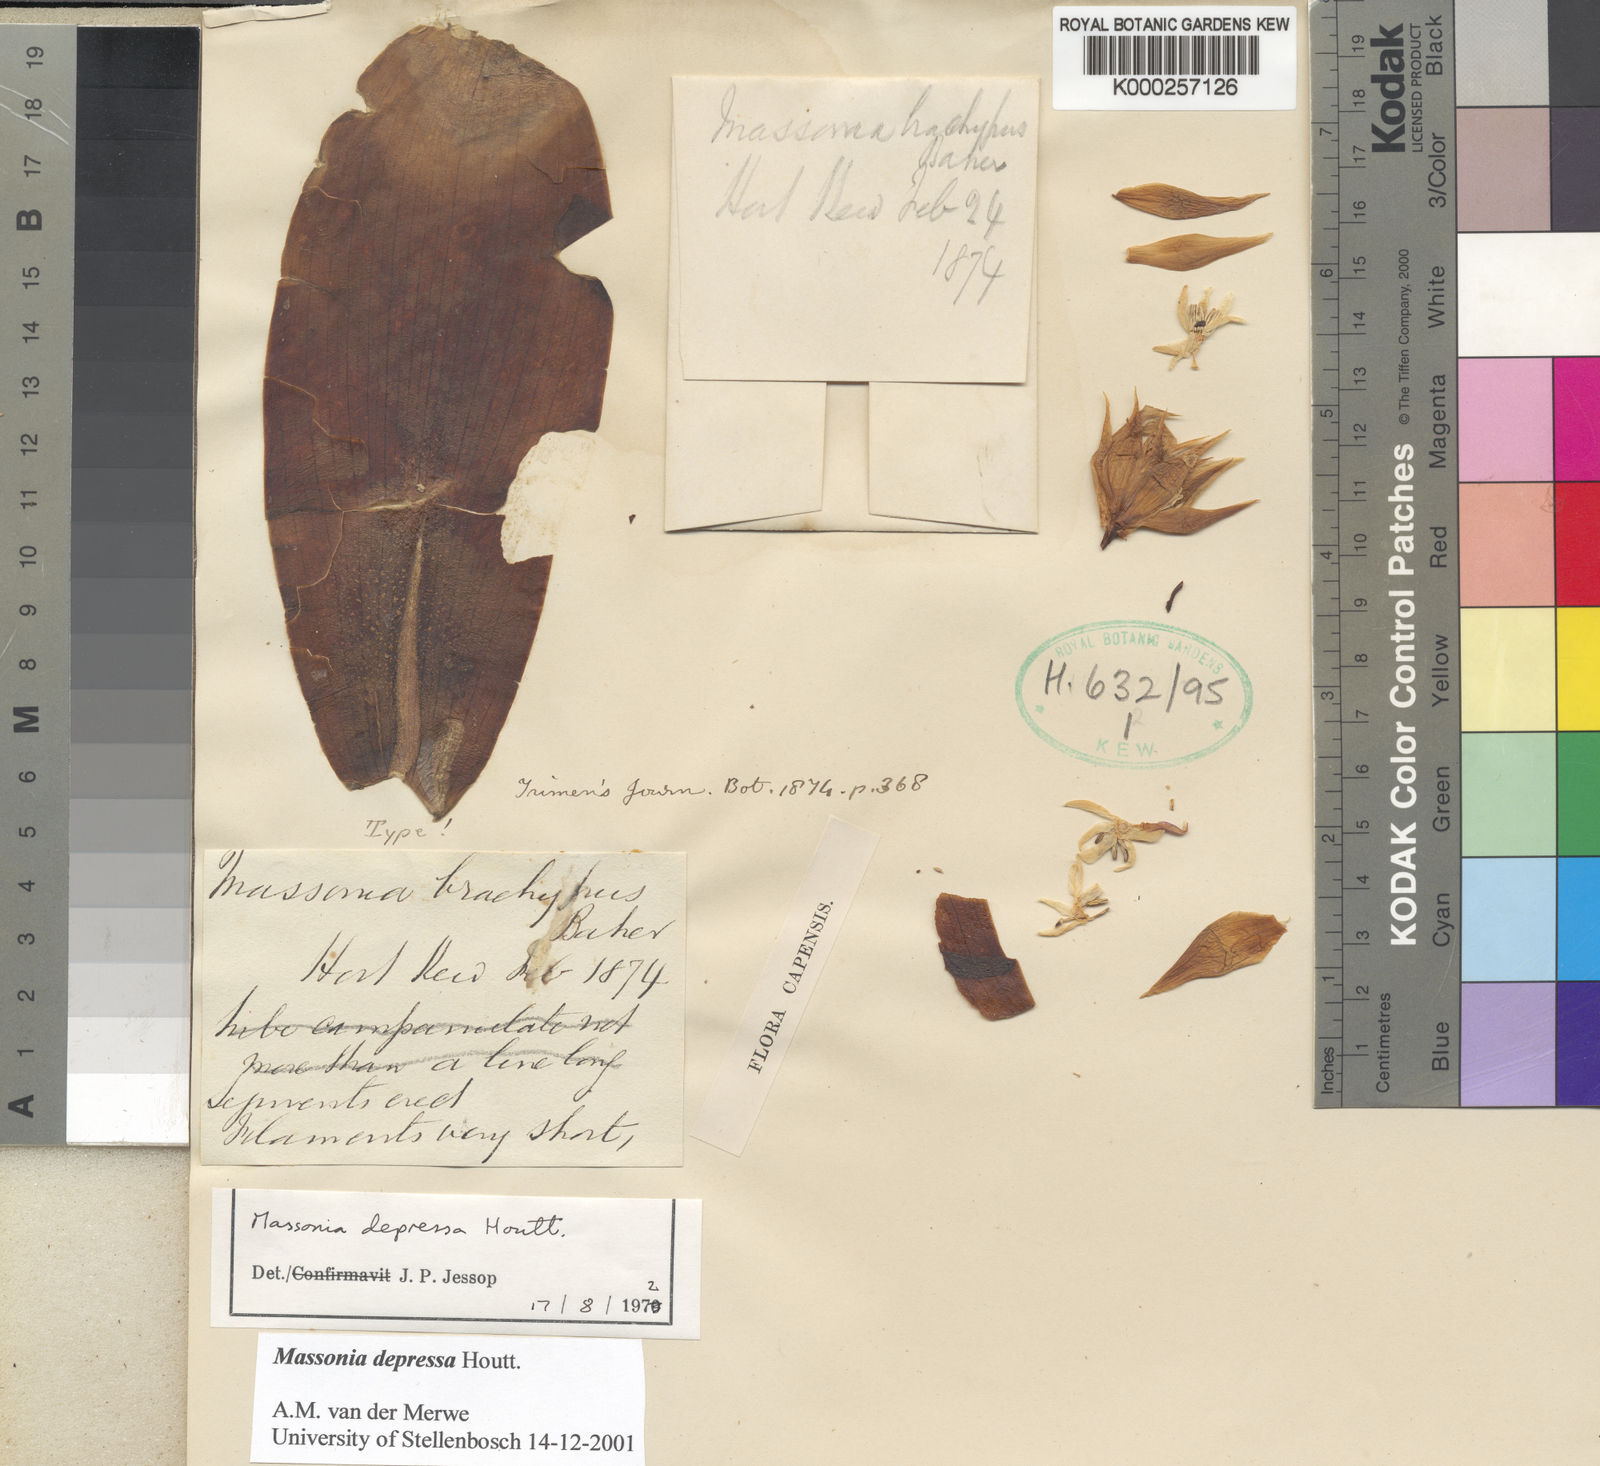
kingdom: Plantae
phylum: Tracheophyta
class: Liliopsida
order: Asparagales
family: Asparagaceae
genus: Massonia
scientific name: Massonia depressa
